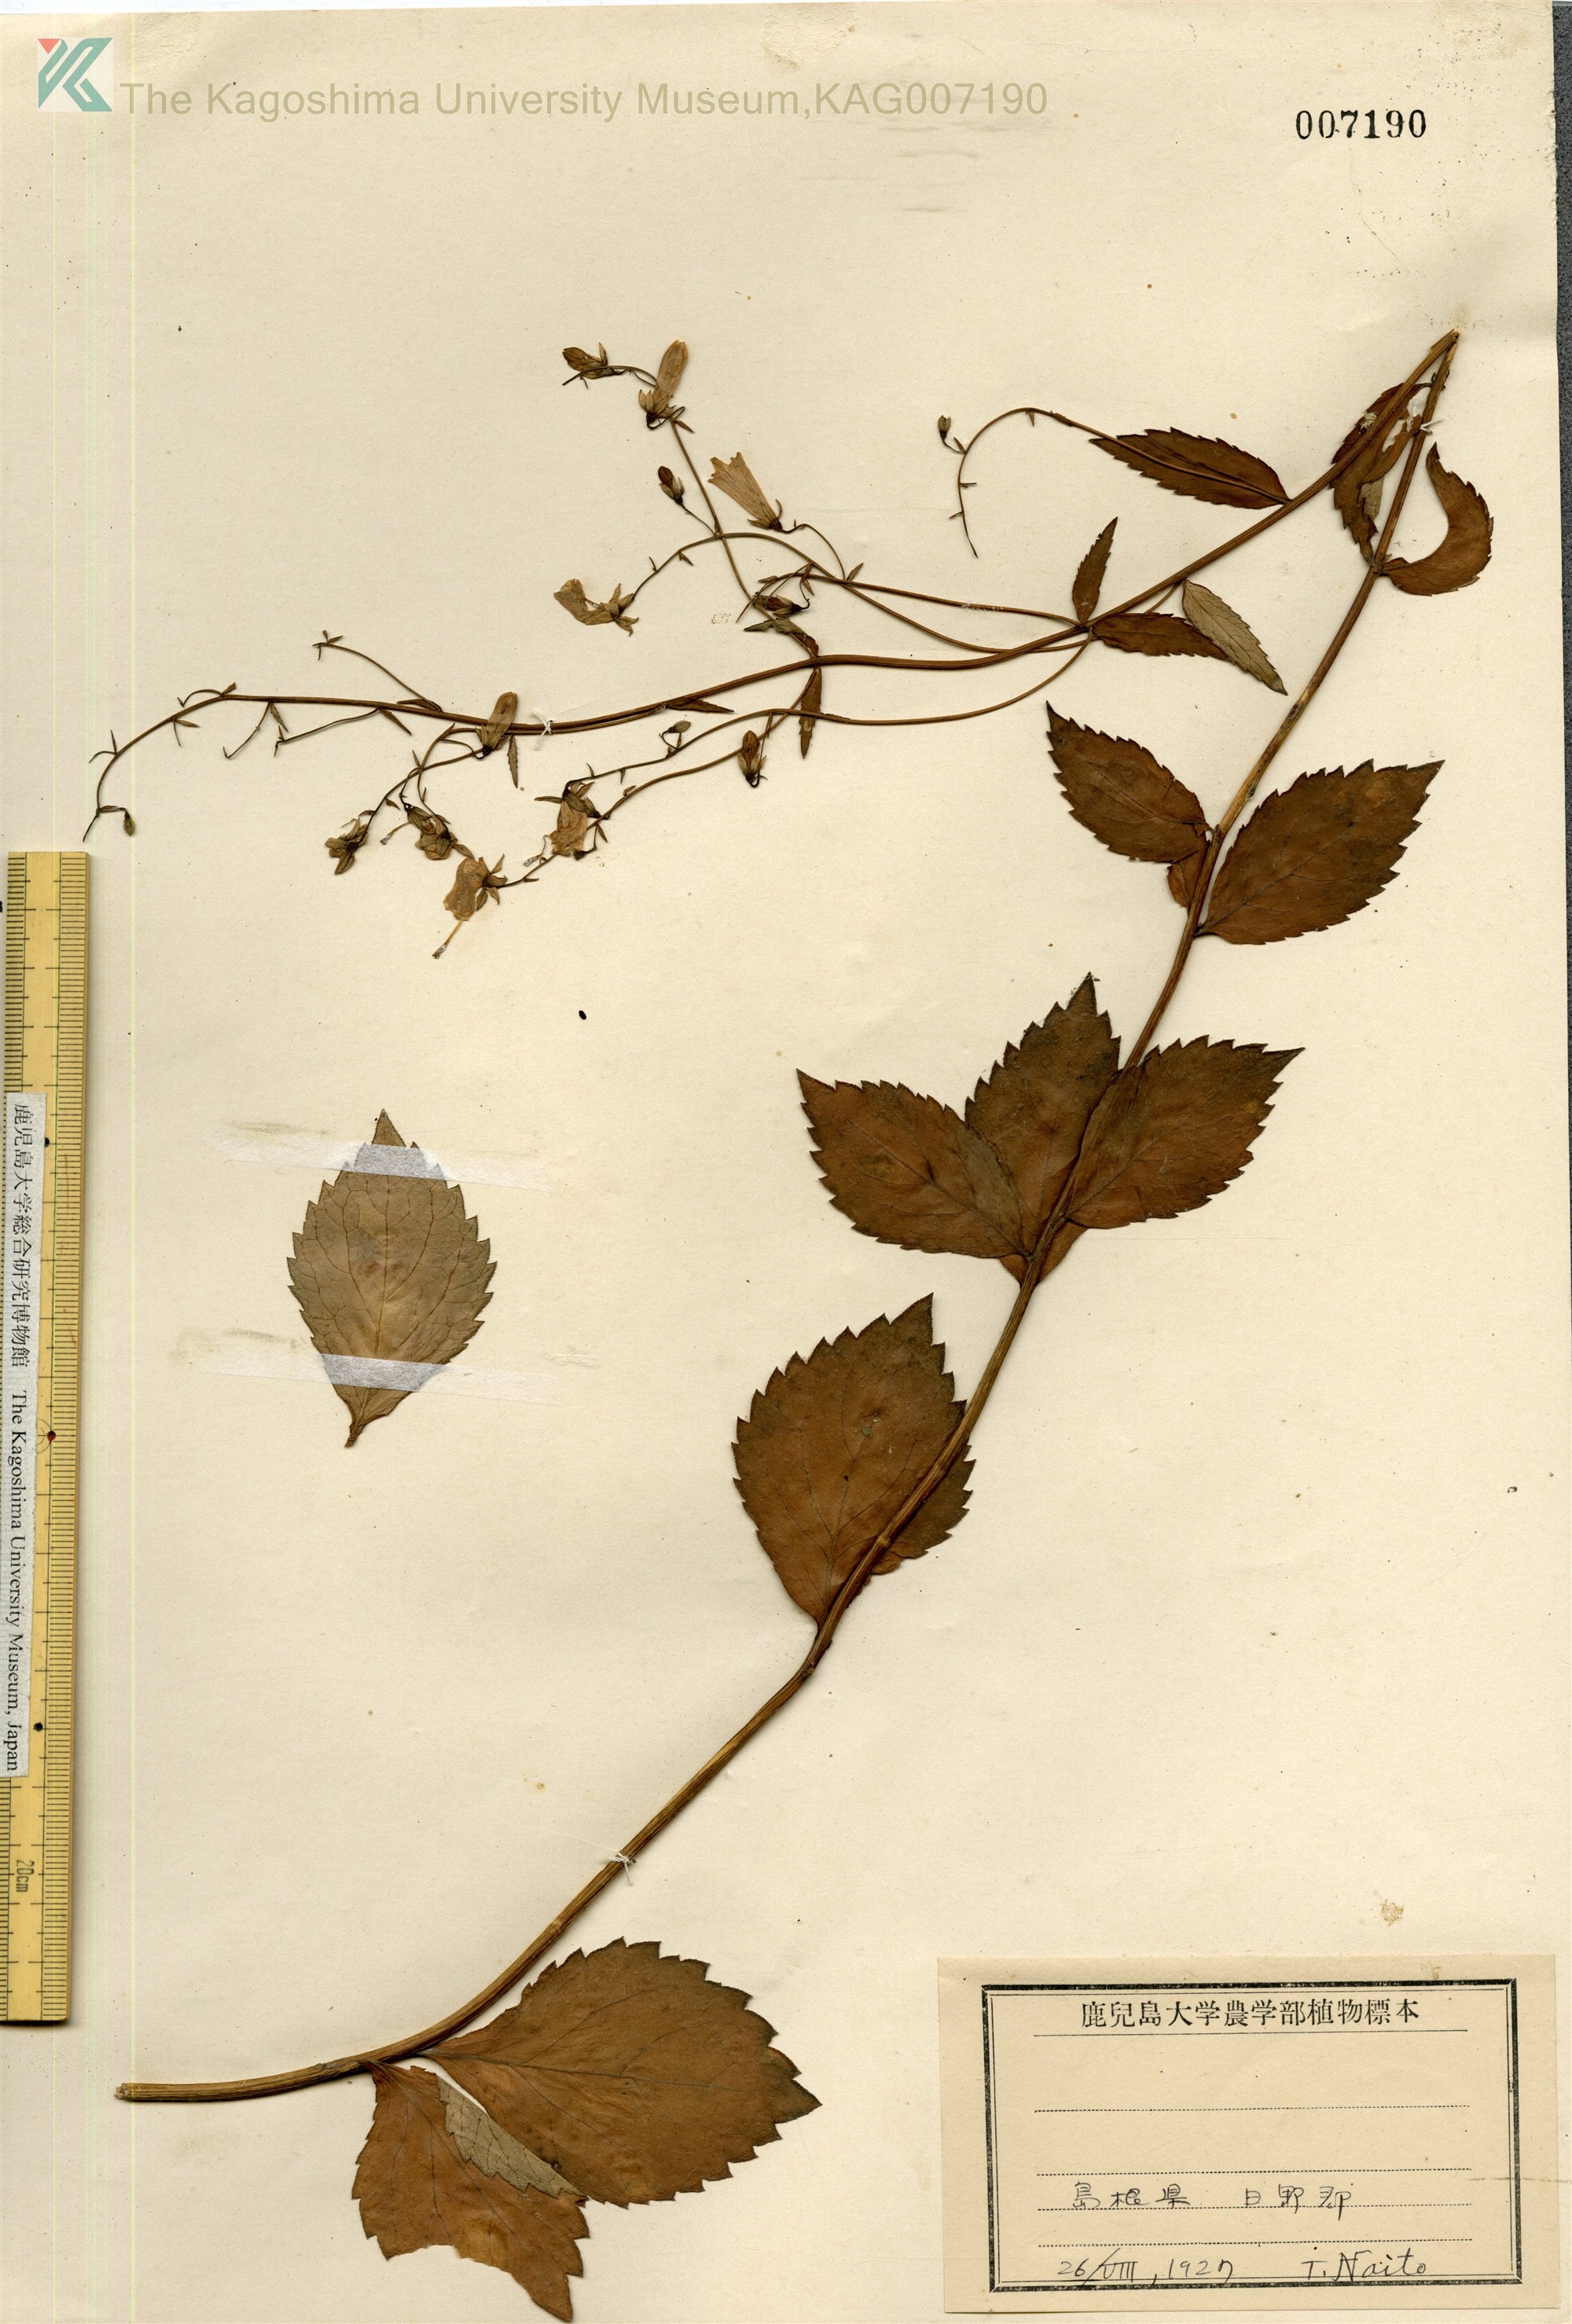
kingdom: Plantae
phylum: Tracheophyta
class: Magnoliopsida
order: Asterales
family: Campanulaceae
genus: Adenophora
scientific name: Adenophora triphylla
